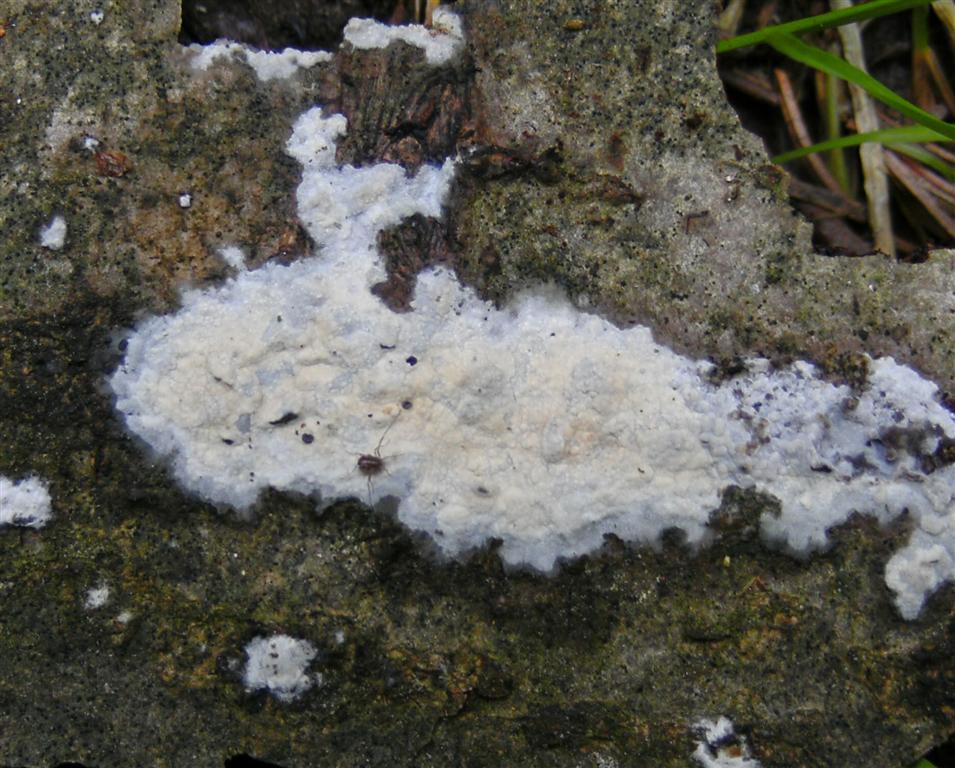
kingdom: Fungi
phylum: Basidiomycota
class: Agaricomycetes
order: Polyporales
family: Hyphodermataceae
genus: Hyphoderma
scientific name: Hyphoderma roseocremeum
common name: lillaplettet kalkskind
